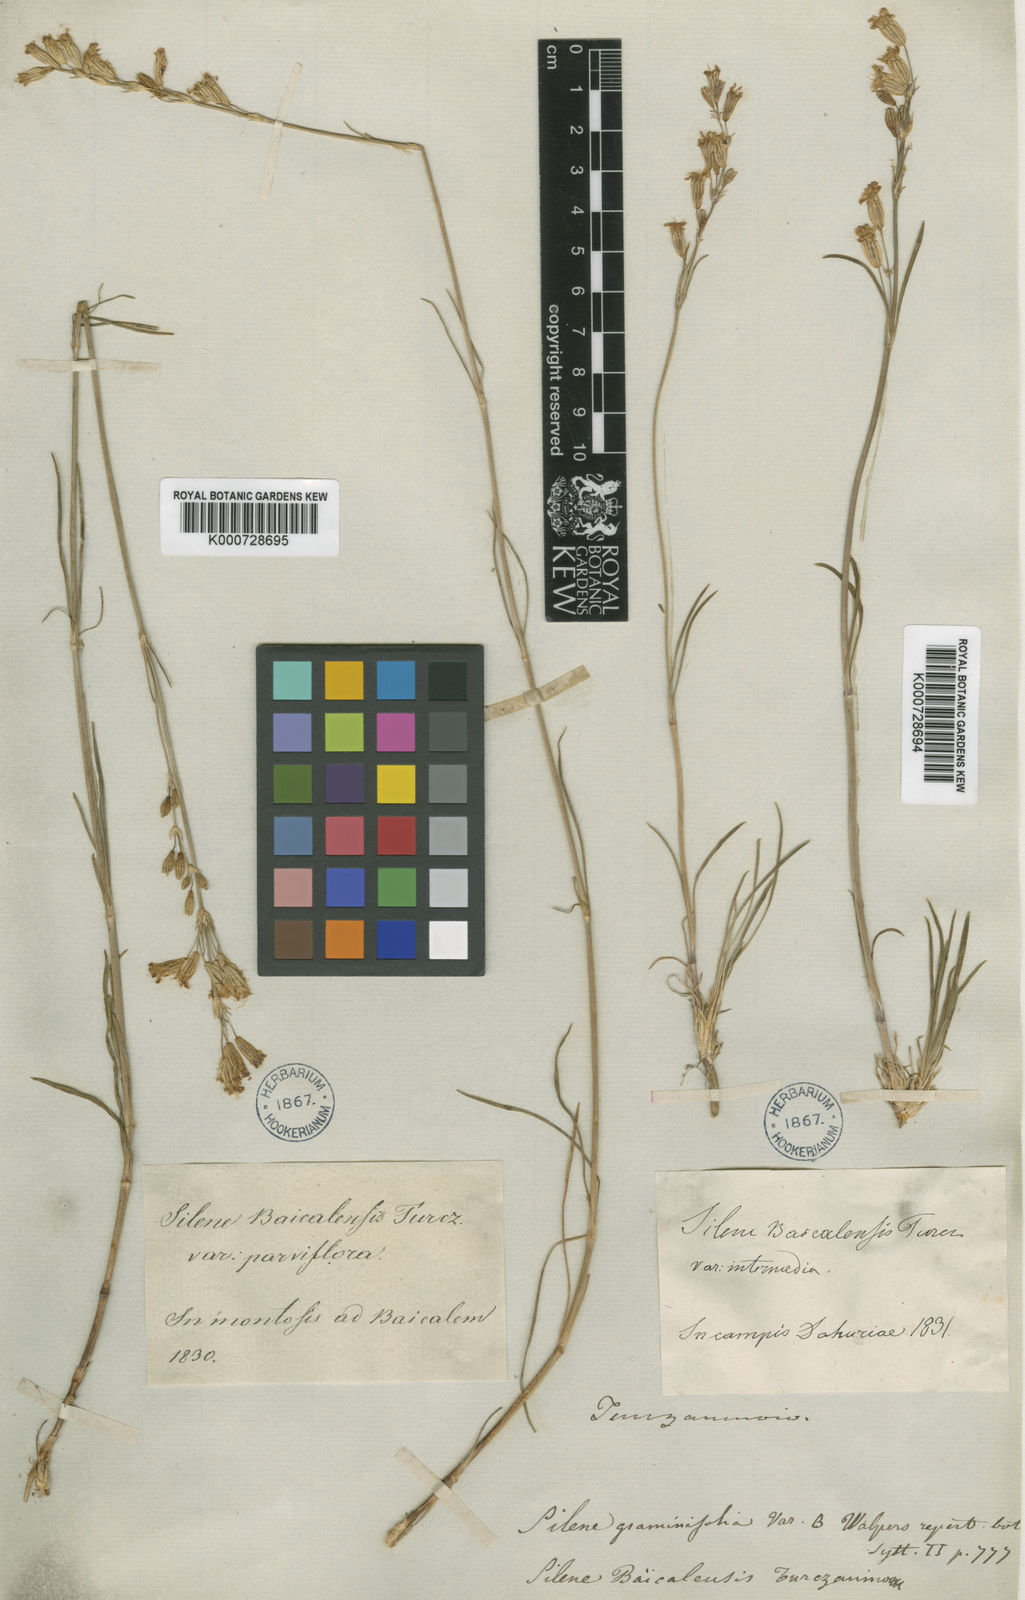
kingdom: Plantae
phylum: Tracheophyta
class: Magnoliopsida
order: Caryophyllales
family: Caryophyllaceae
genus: Silene
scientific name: Silene jeniseensis
